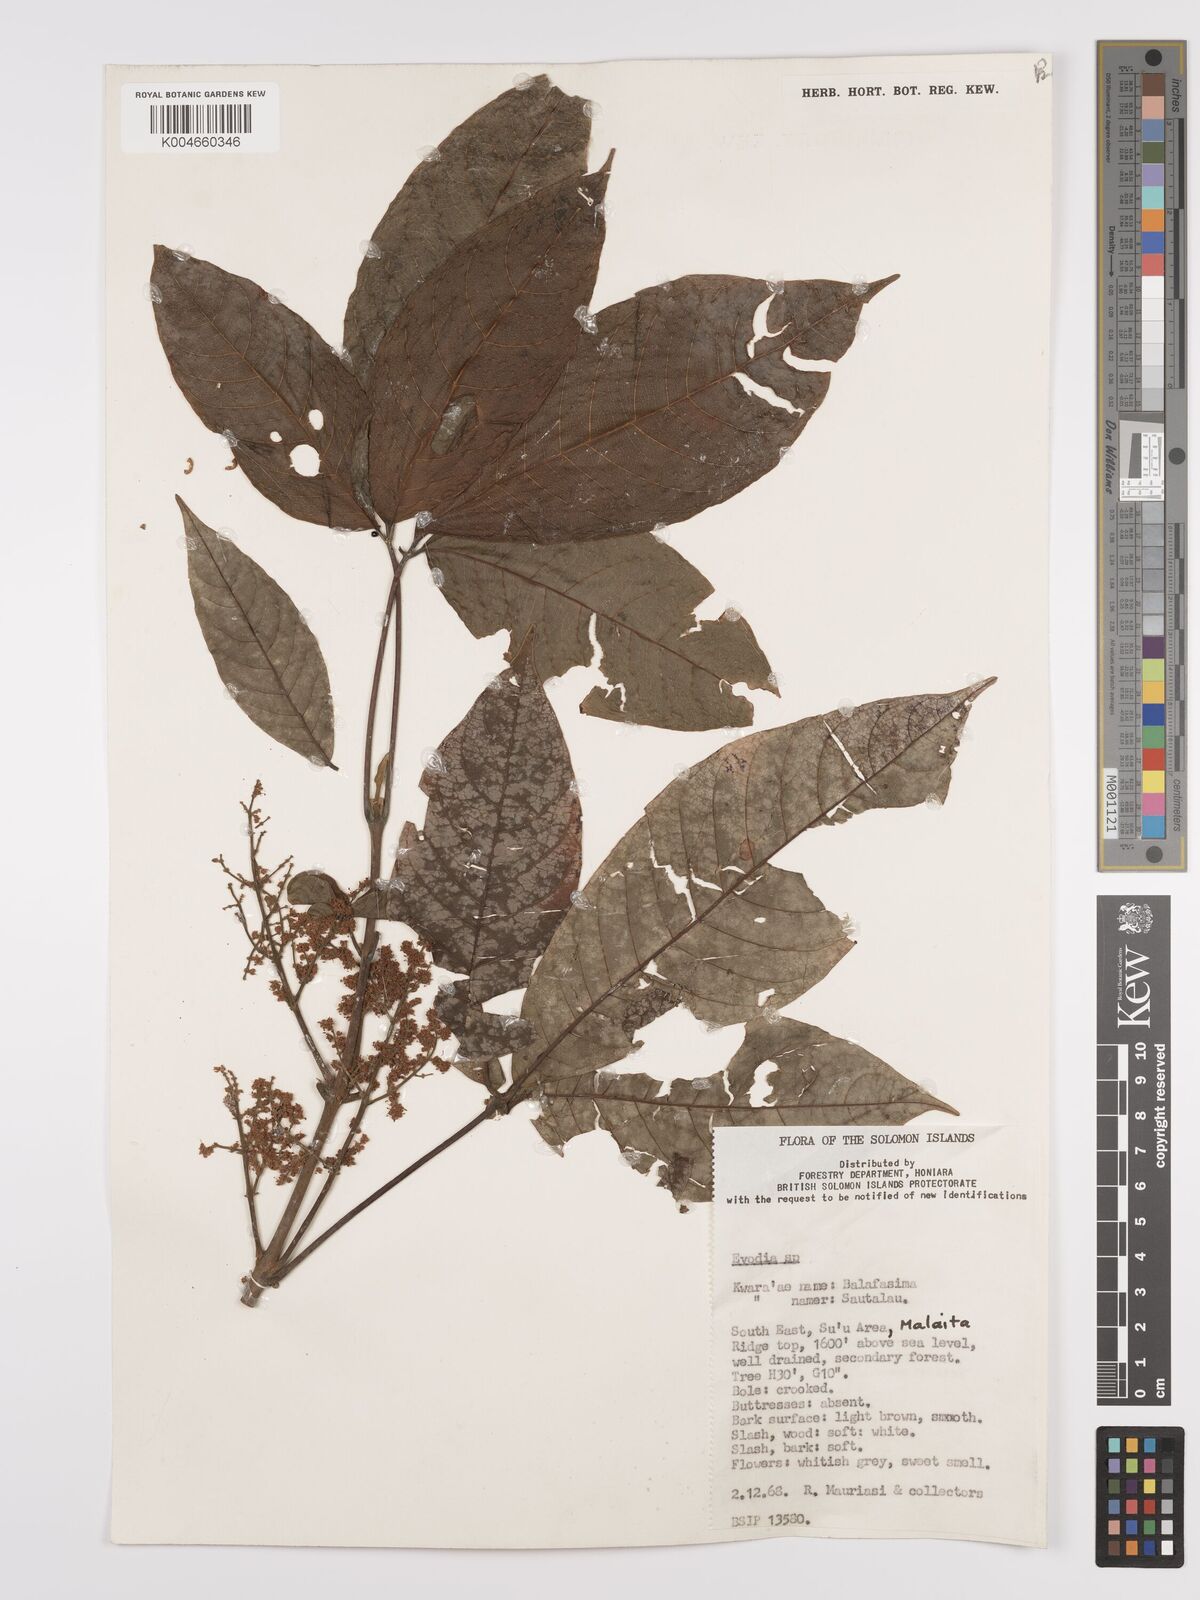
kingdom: Plantae
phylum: Tracheophyta
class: Magnoliopsida
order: Sapindales
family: Rutaceae
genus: Euodia
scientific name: Euodia
